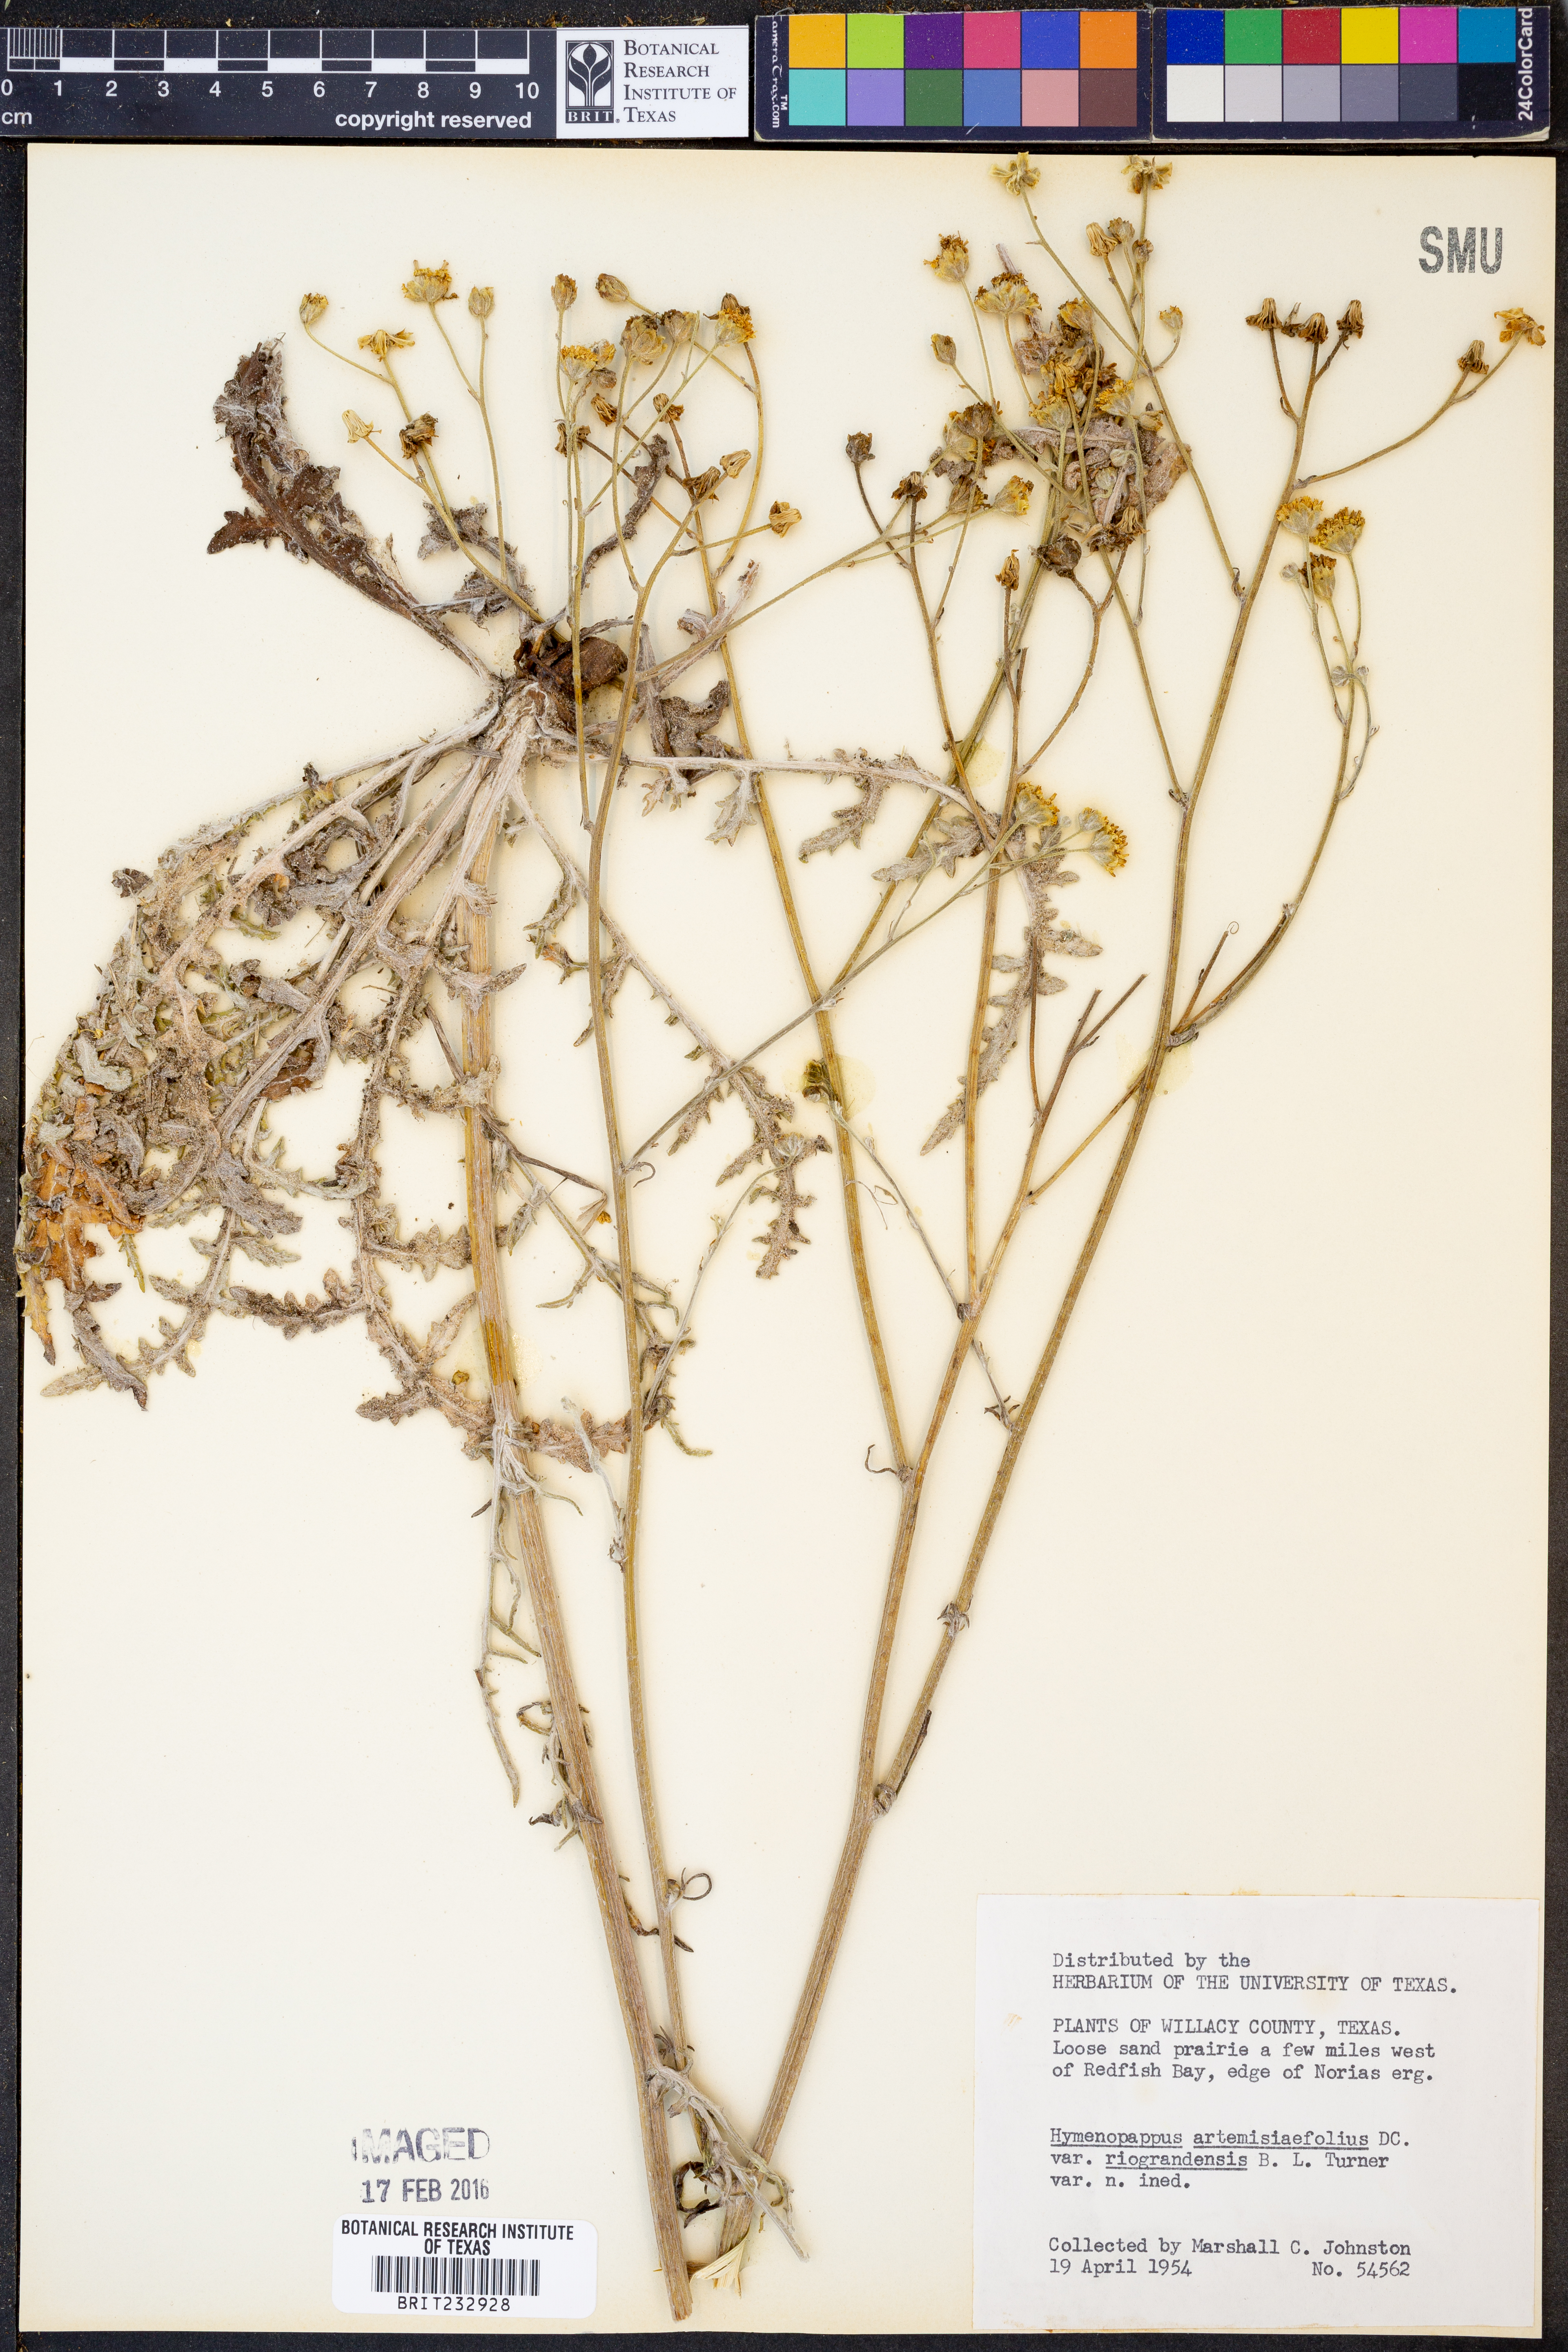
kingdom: Plantae
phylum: Tracheophyta
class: Magnoliopsida
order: Asterales
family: Asteraceae
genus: Hymenopappus
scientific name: Hymenopappus artemisiifolius
